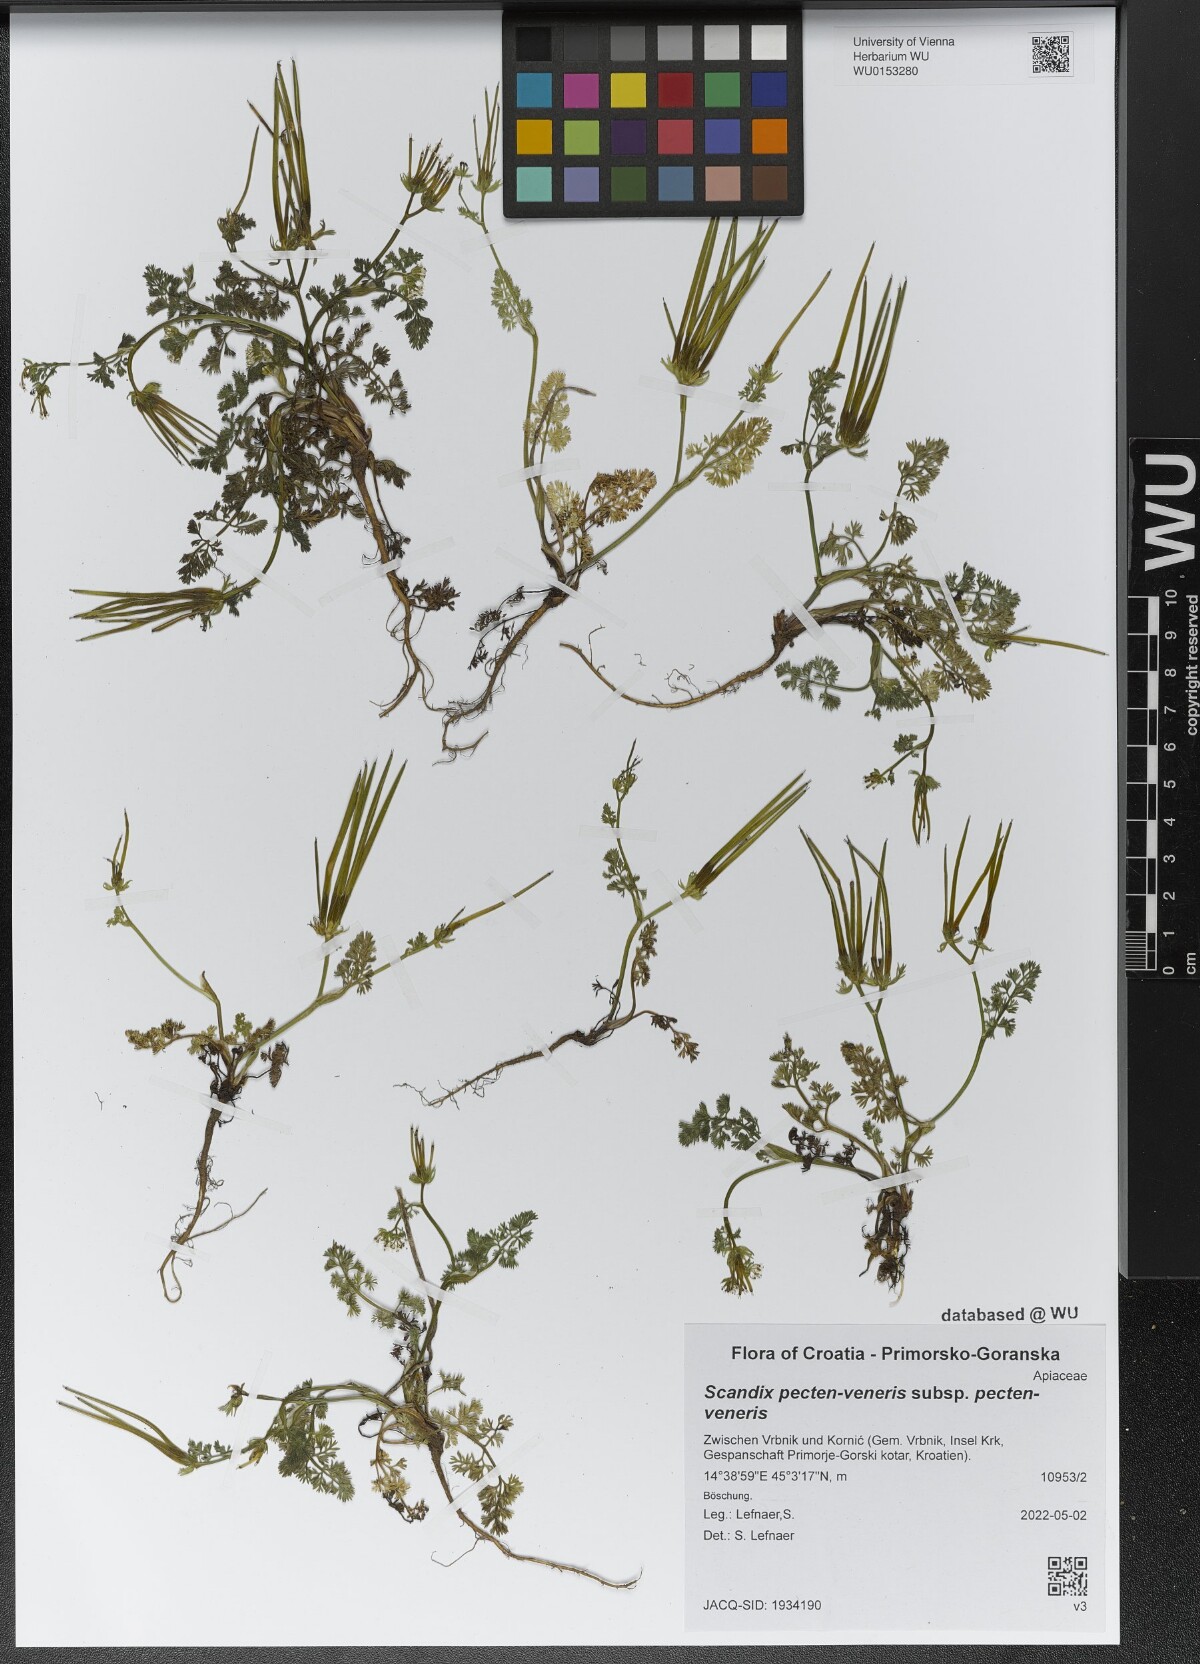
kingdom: Plantae
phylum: Tracheophyta
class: Magnoliopsida
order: Apiales
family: Apiaceae
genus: Scandix
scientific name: Scandix pecten-veneris
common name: Shepherd's-needle
